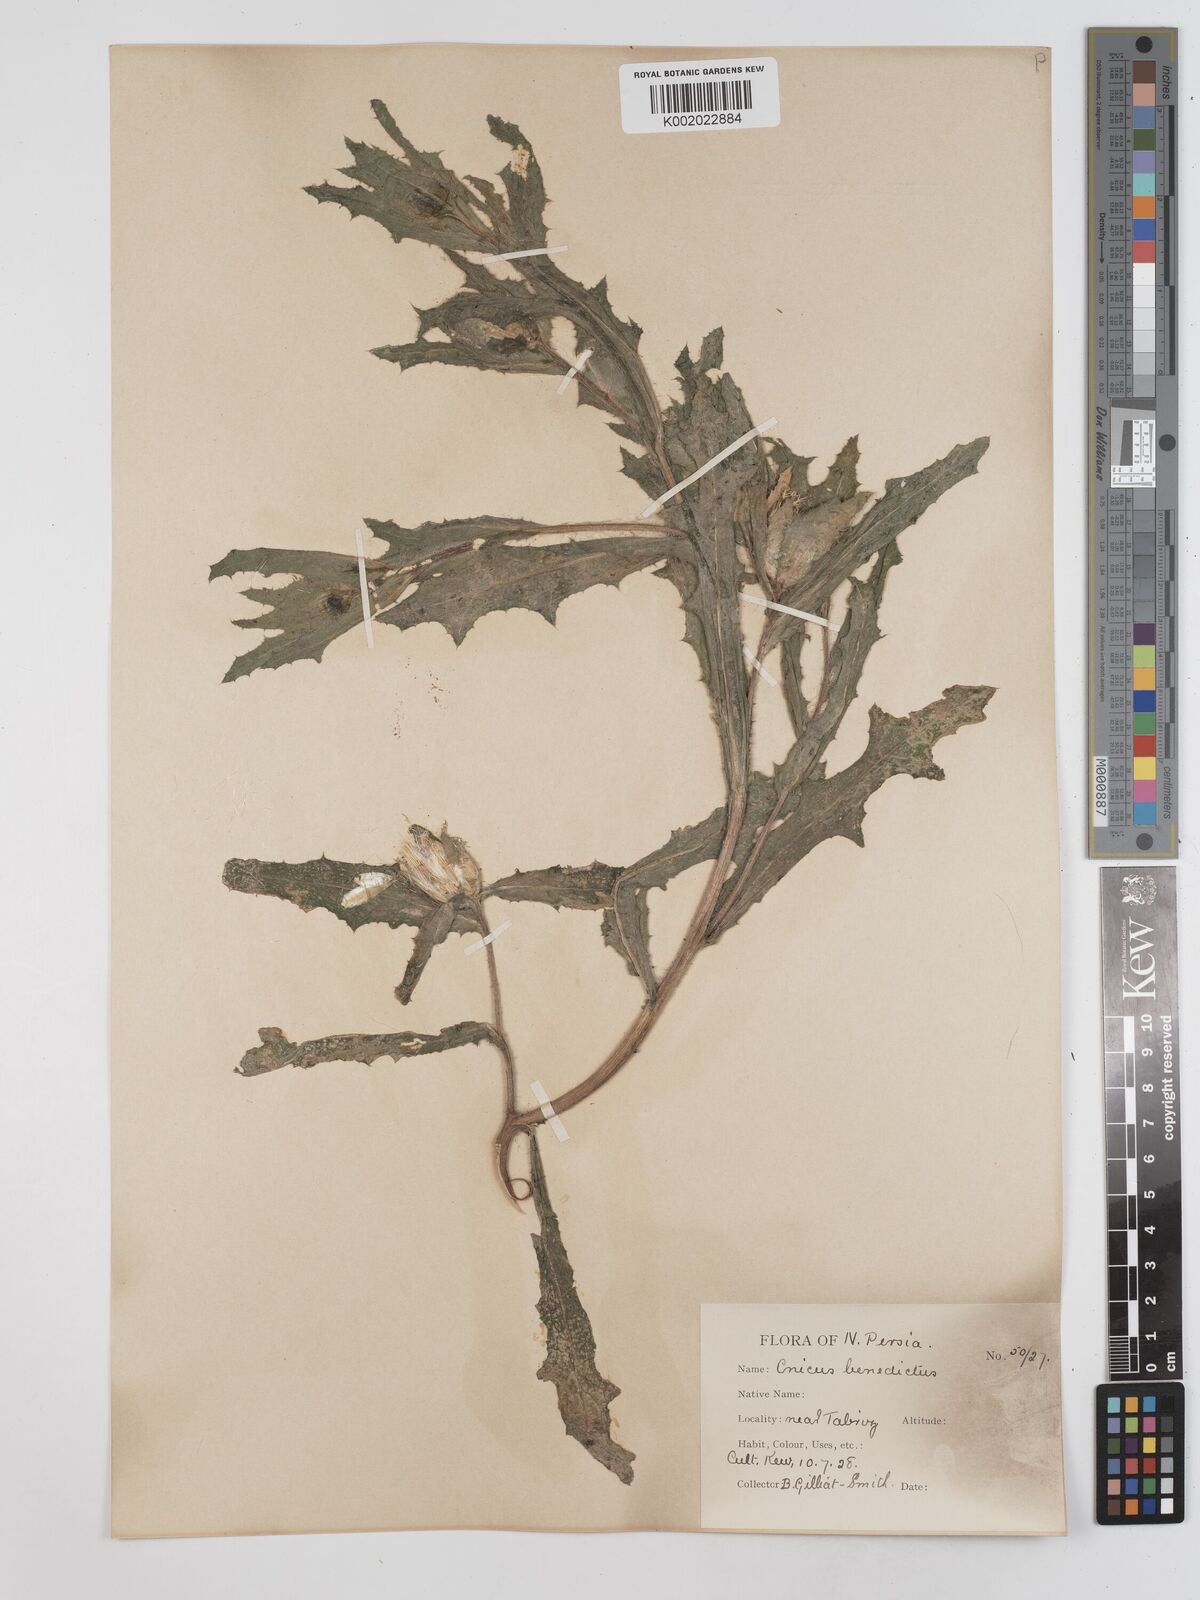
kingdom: Plantae
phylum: Tracheophyta
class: Magnoliopsida
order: Asterales
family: Asteraceae
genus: Centaurea
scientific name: Centaurea benedicta
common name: Blessed thistle
